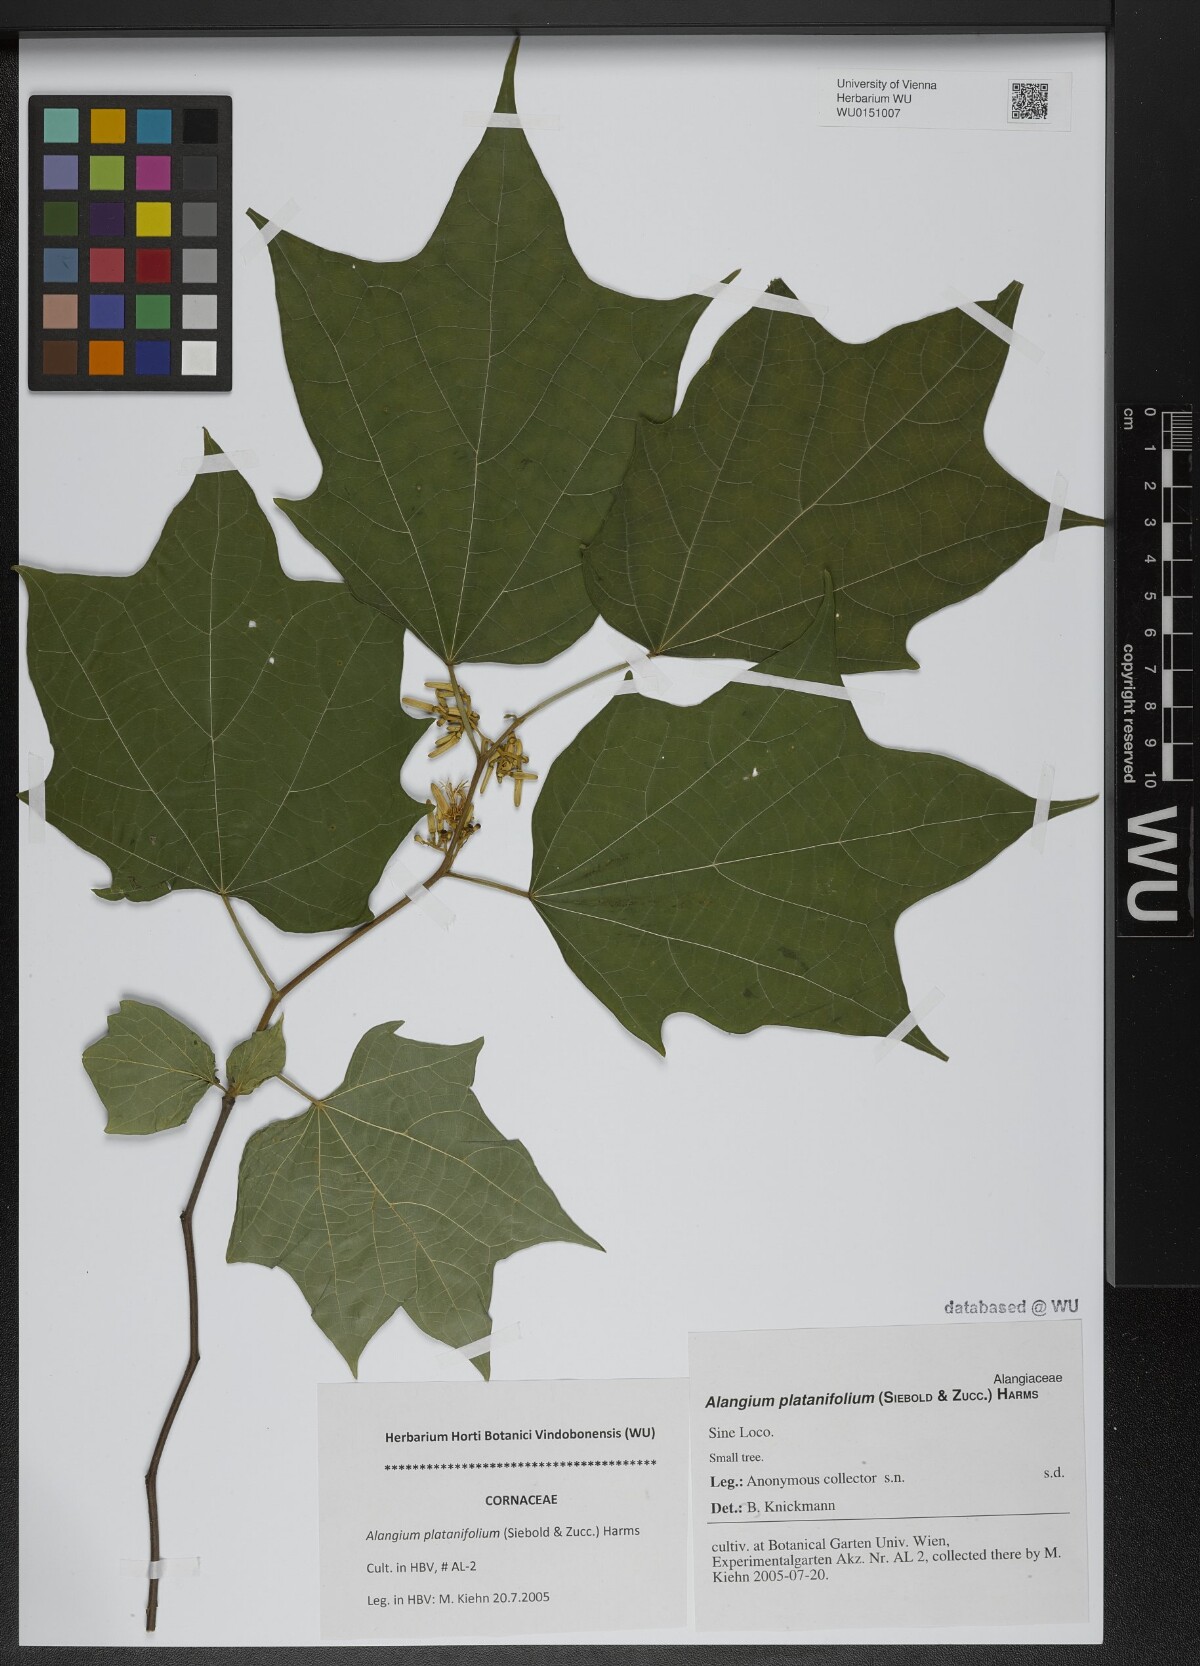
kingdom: Plantae
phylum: Tracheophyta
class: Magnoliopsida
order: Cornales
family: Cornaceae
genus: Alangium
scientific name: Alangium platanifolium
